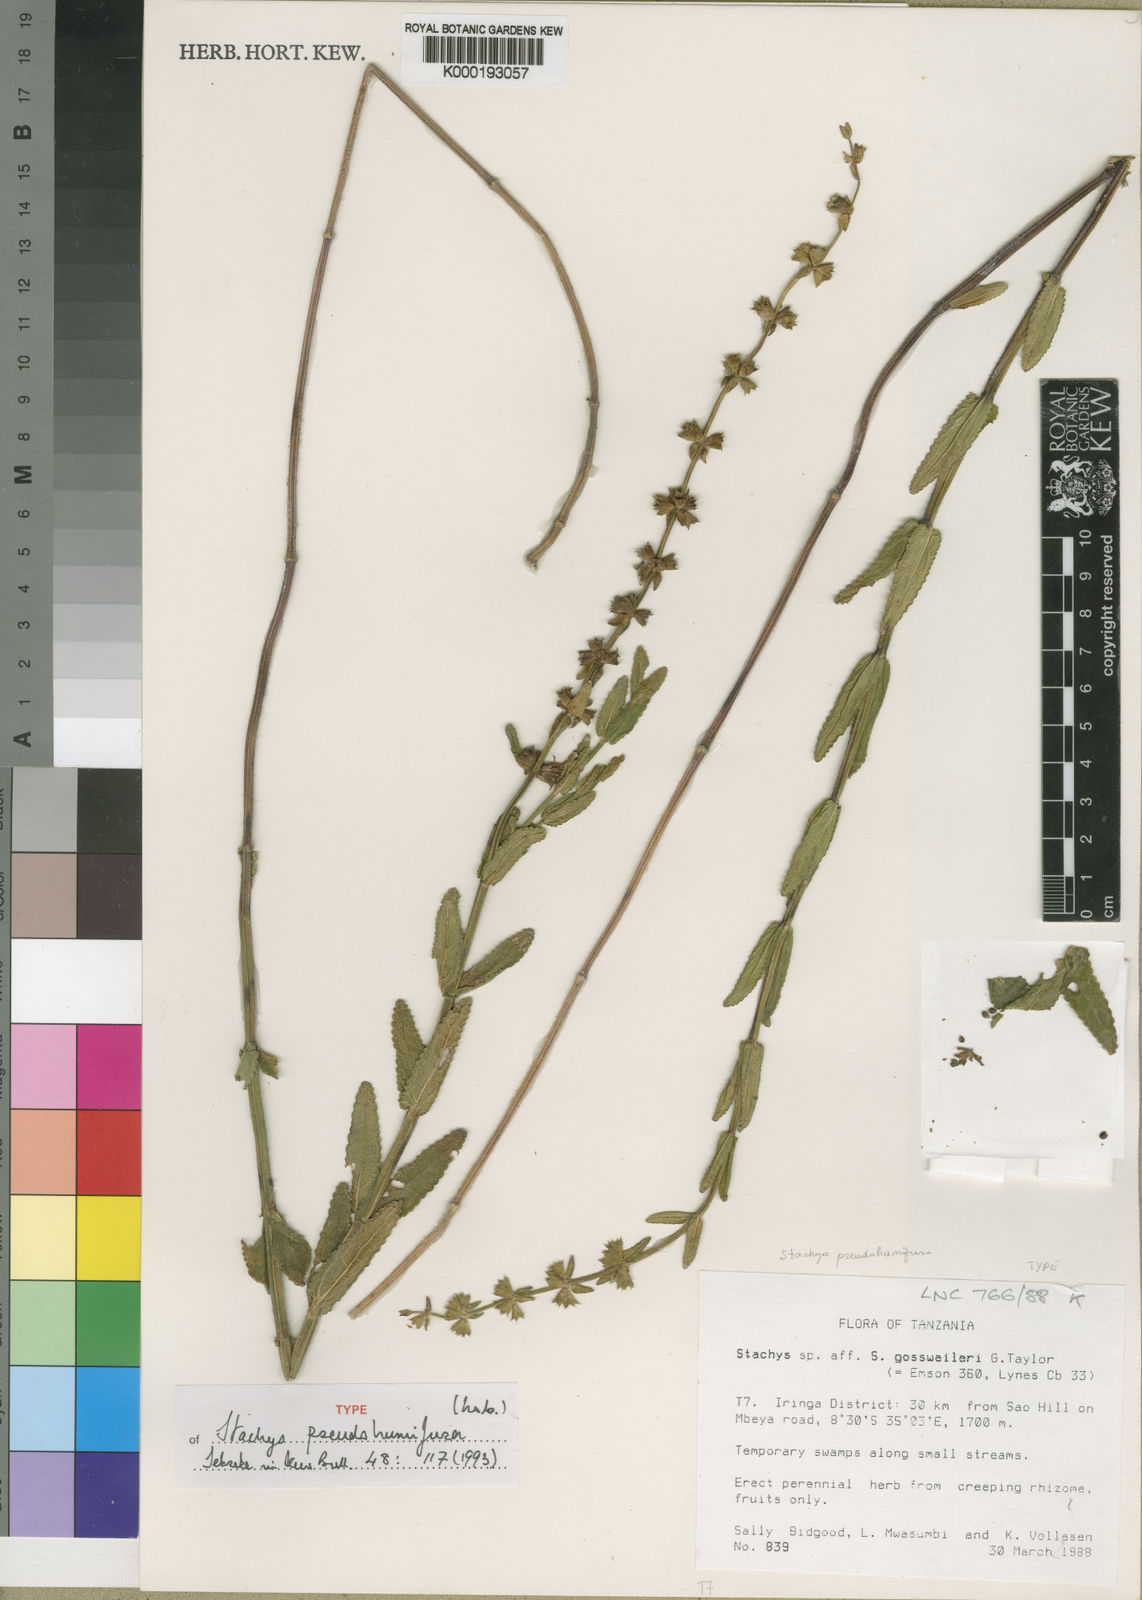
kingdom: Plantae
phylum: Tracheophyta
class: Magnoliopsida
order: Lamiales
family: Lamiaceae
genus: Stachys
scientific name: Stachys pseudohumifusa
